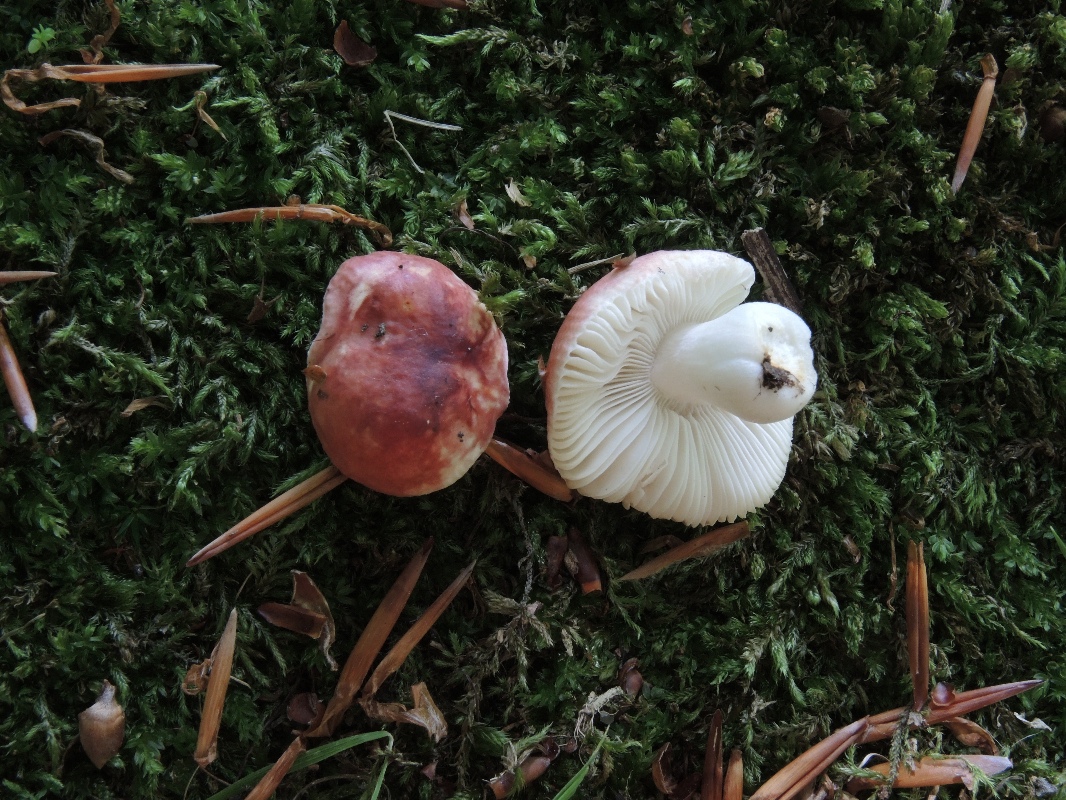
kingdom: Fungi
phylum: Basidiomycota
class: Agaricomycetes
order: Russulales
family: Russulaceae
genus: Russula
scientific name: Russula puellula
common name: gulnende skørhat
